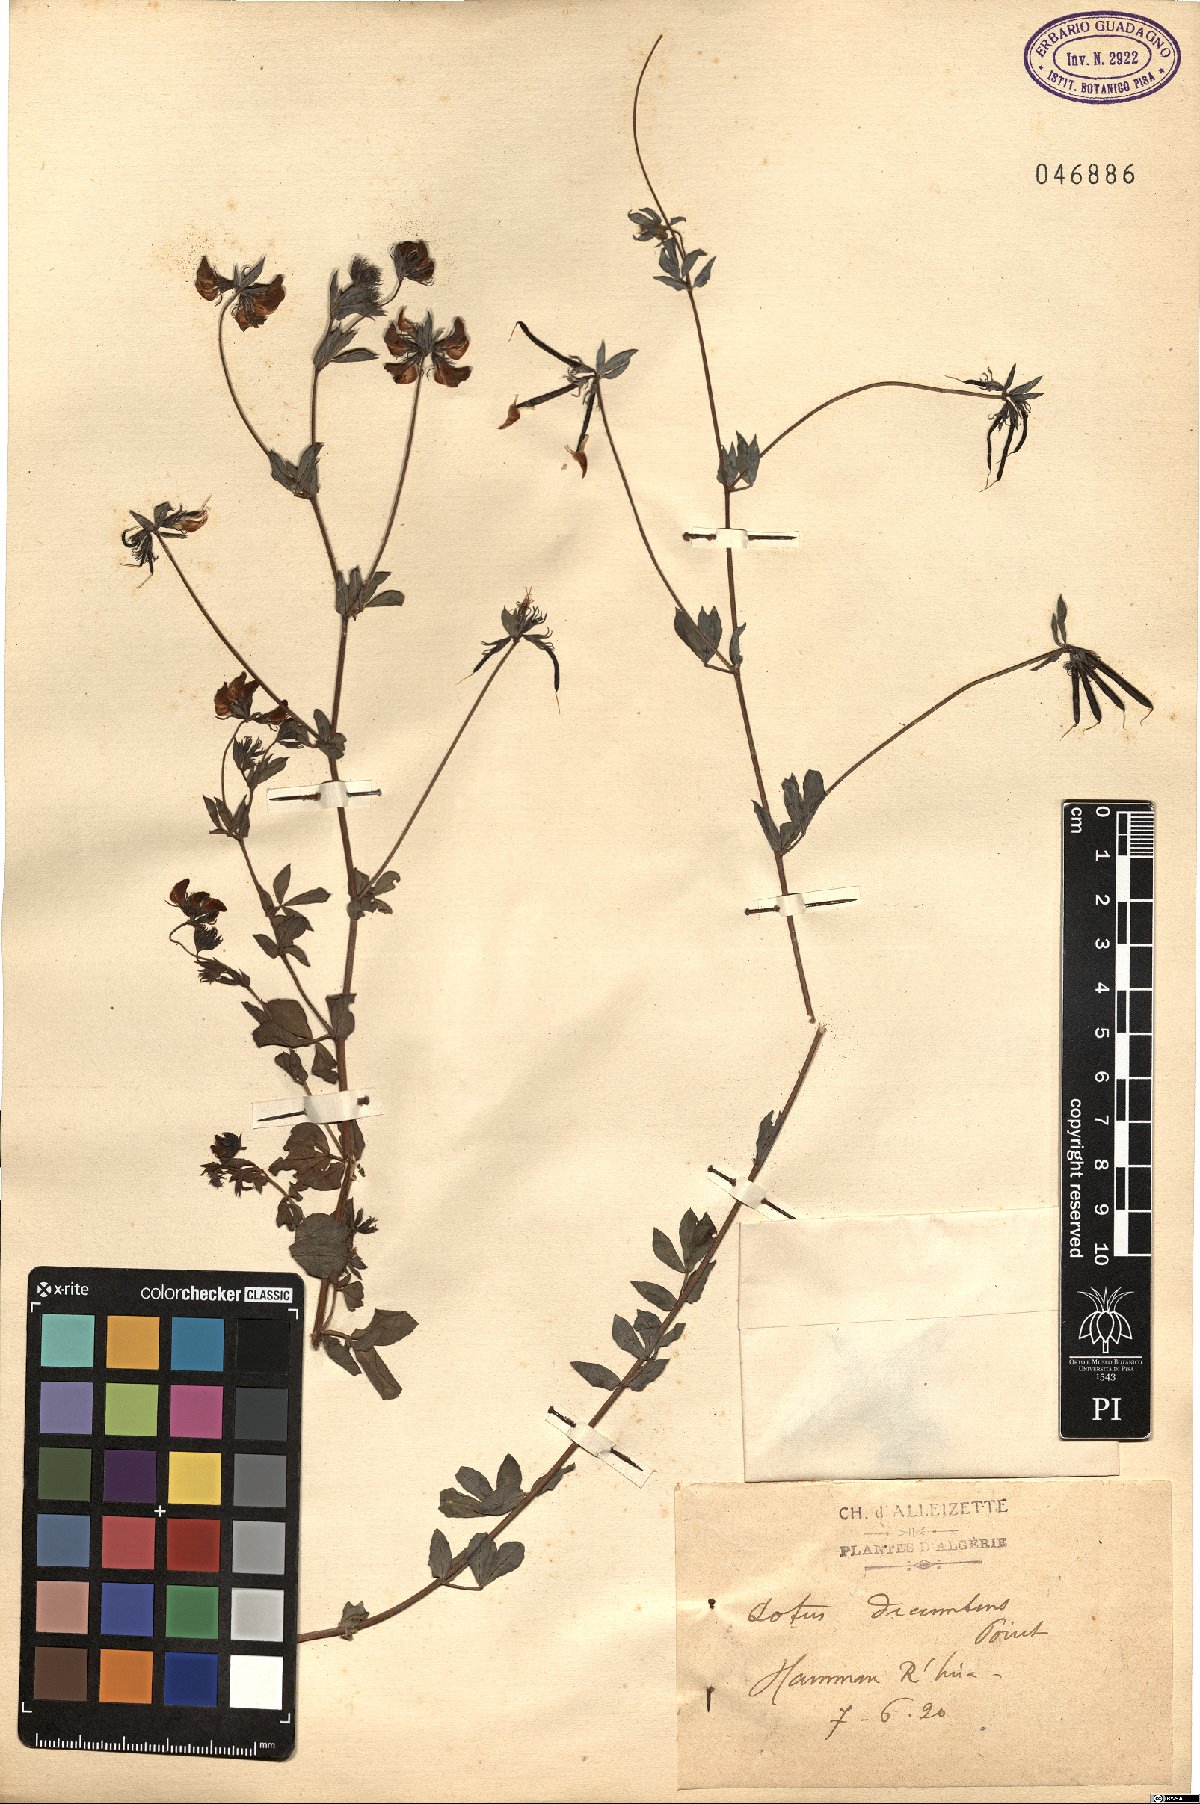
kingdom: Plantae
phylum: Tracheophyta
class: Magnoliopsida
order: Fabales
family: Fabaceae
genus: Lotus
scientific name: Lotus pedunculatus
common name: Greater birdsfoot-trefoil
